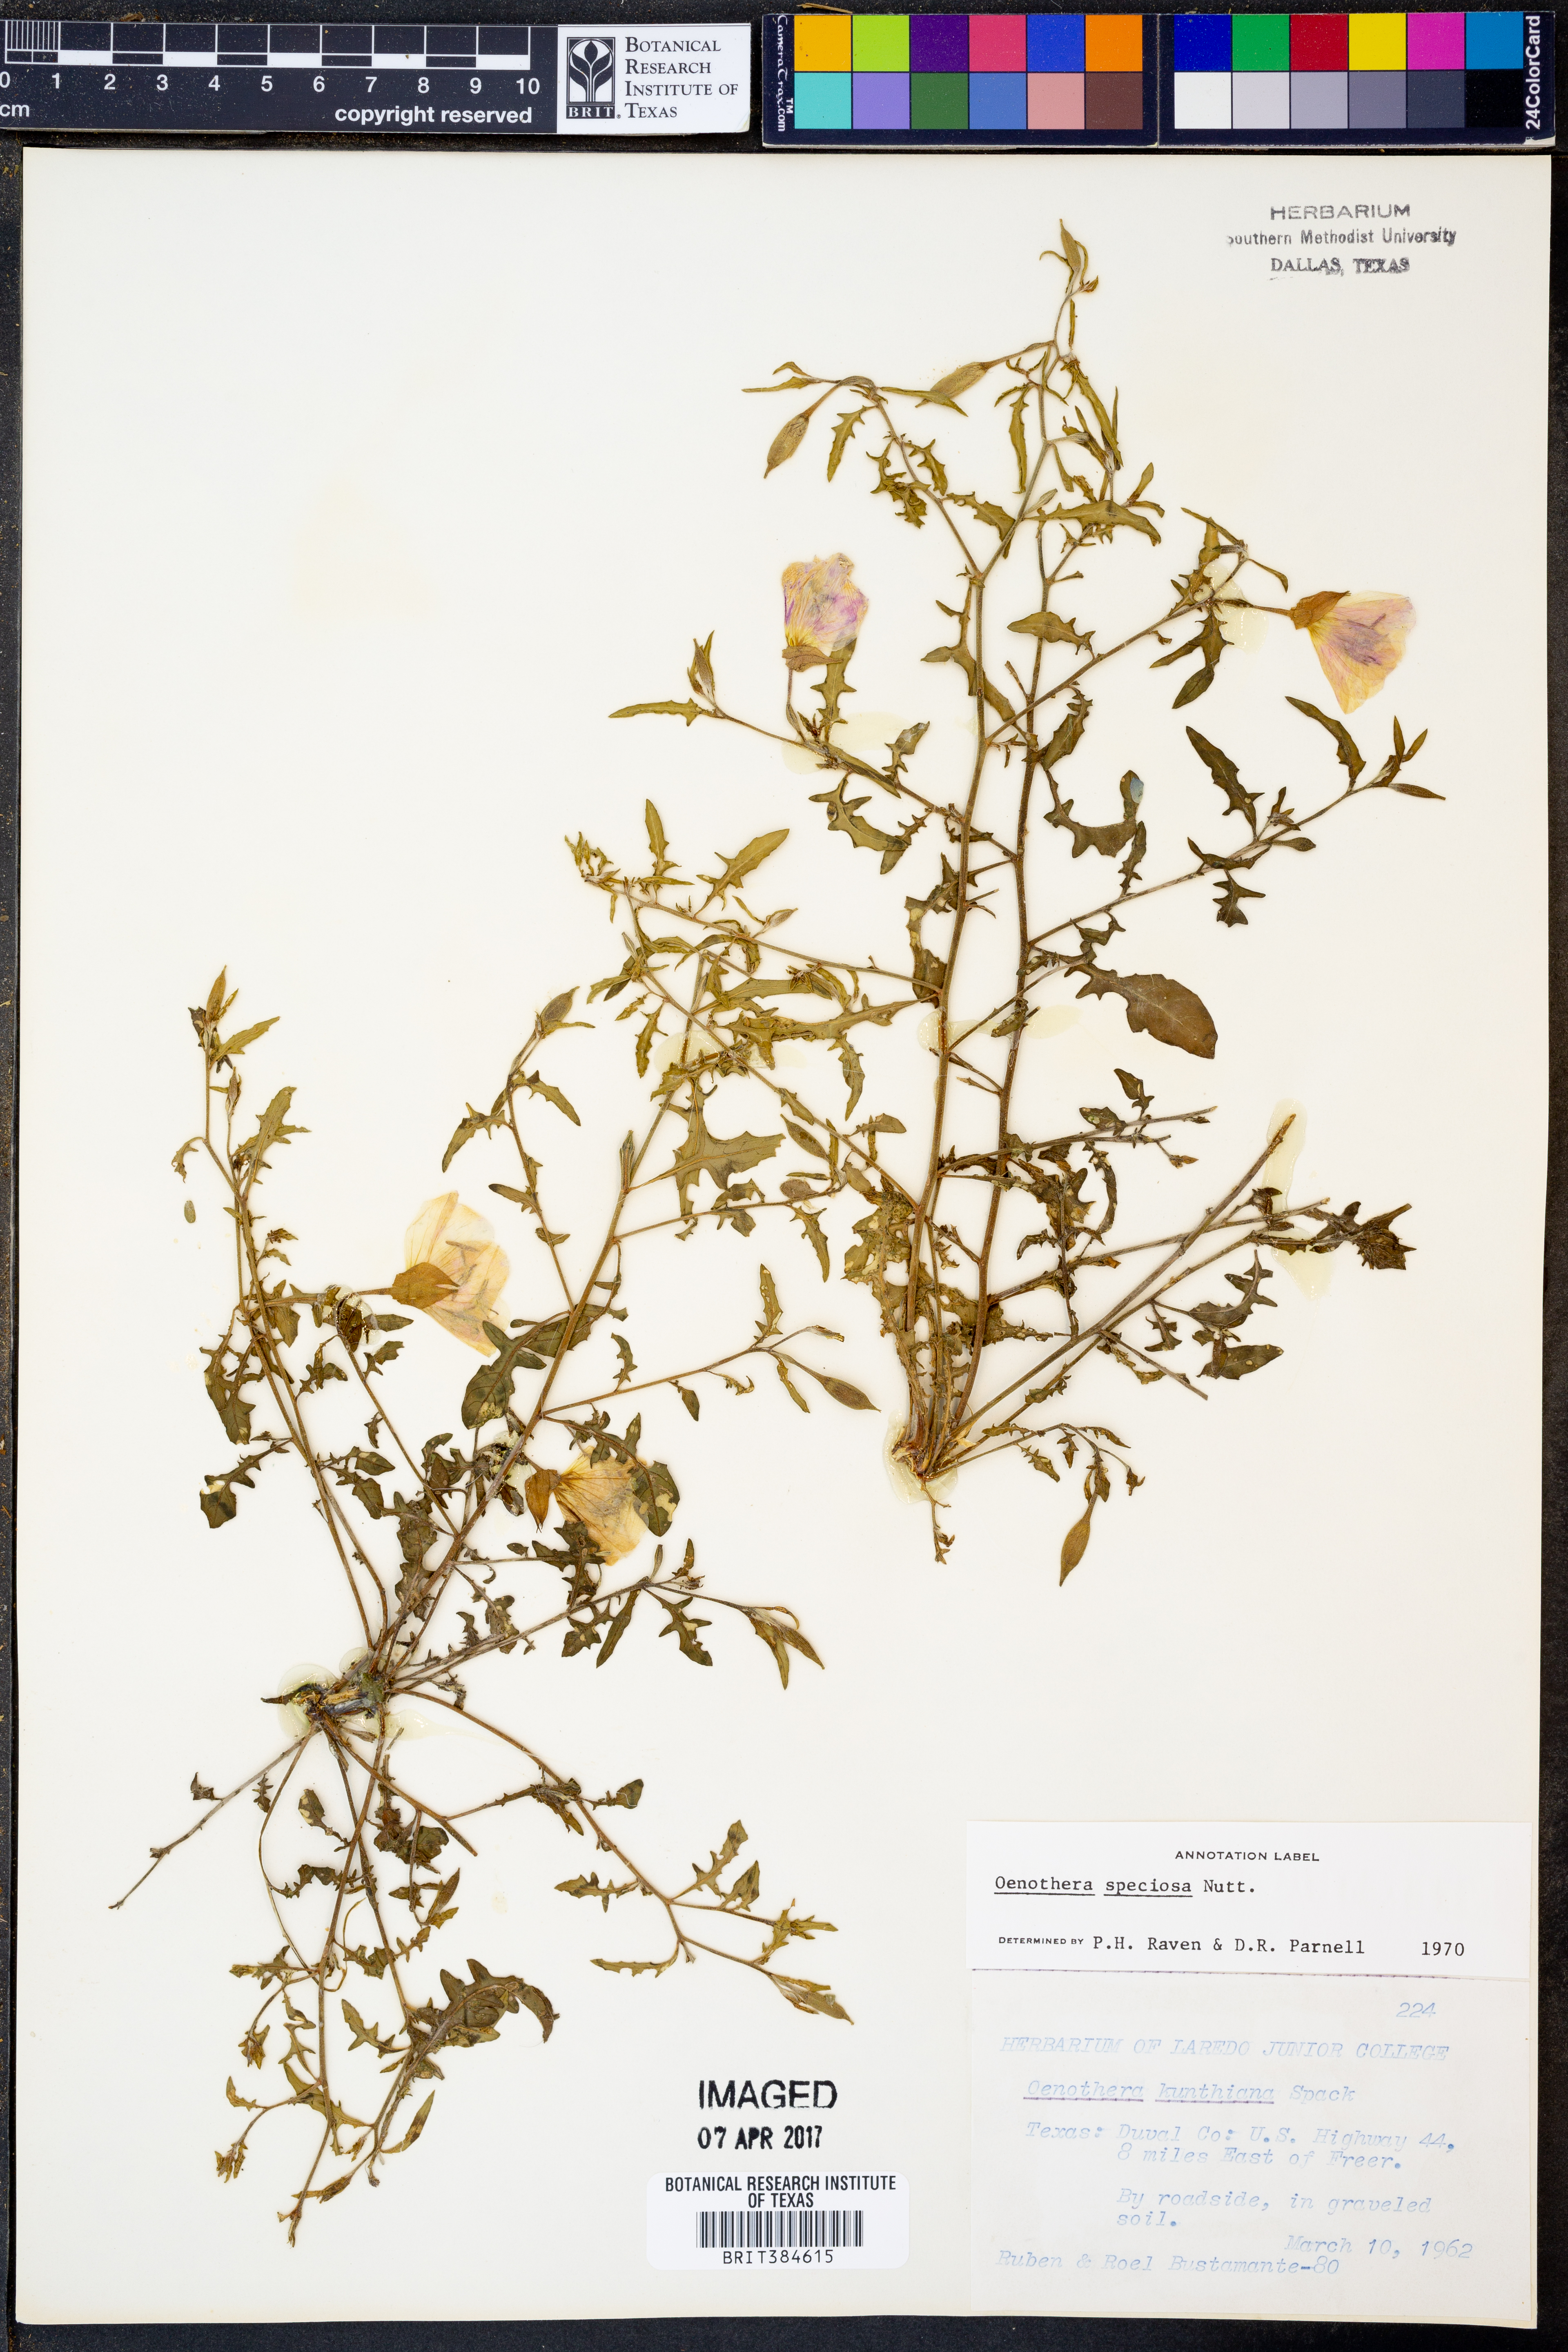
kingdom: Plantae
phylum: Tracheophyta
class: Magnoliopsida
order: Myrtales
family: Onagraceae
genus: Oenothera
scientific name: Oenothera speciosa
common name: White evening-primrose
